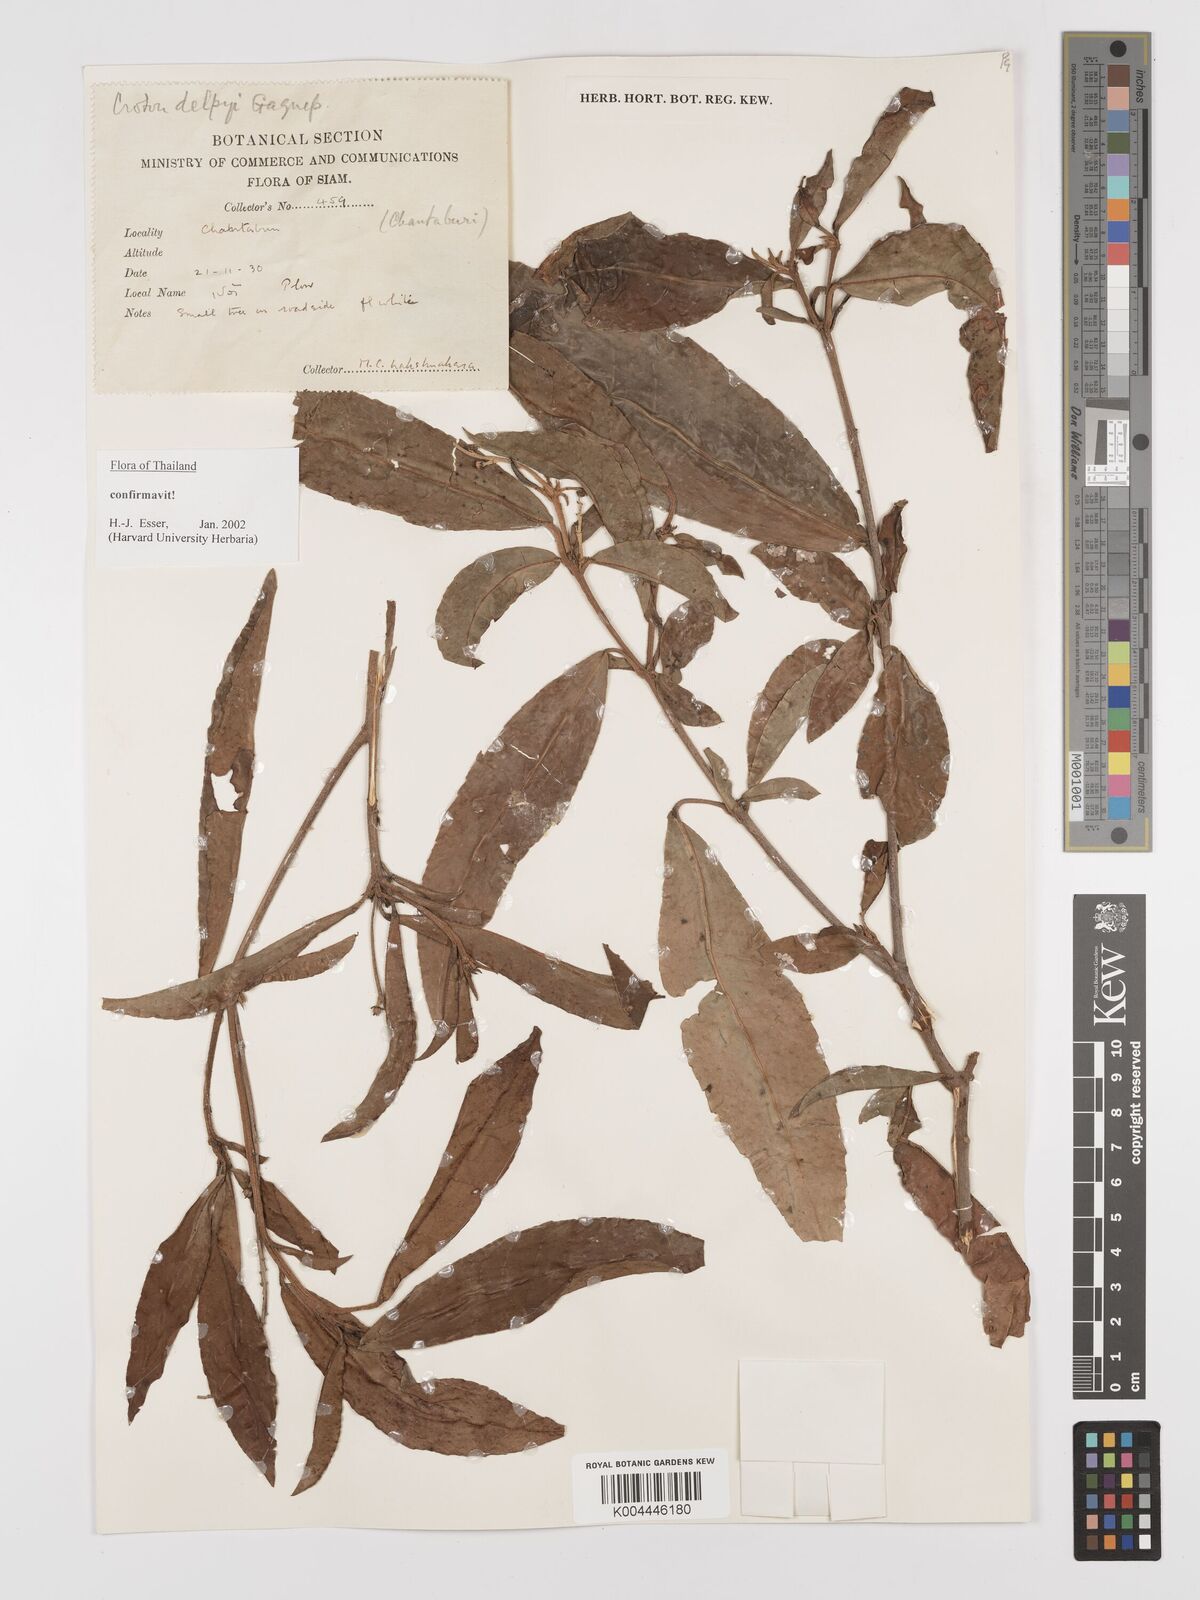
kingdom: Plantae
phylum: Tracheophyta
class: Magnoliopsida
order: Malpighiales
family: Euphorbiaceae
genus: Croton
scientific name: Croton delpyi
